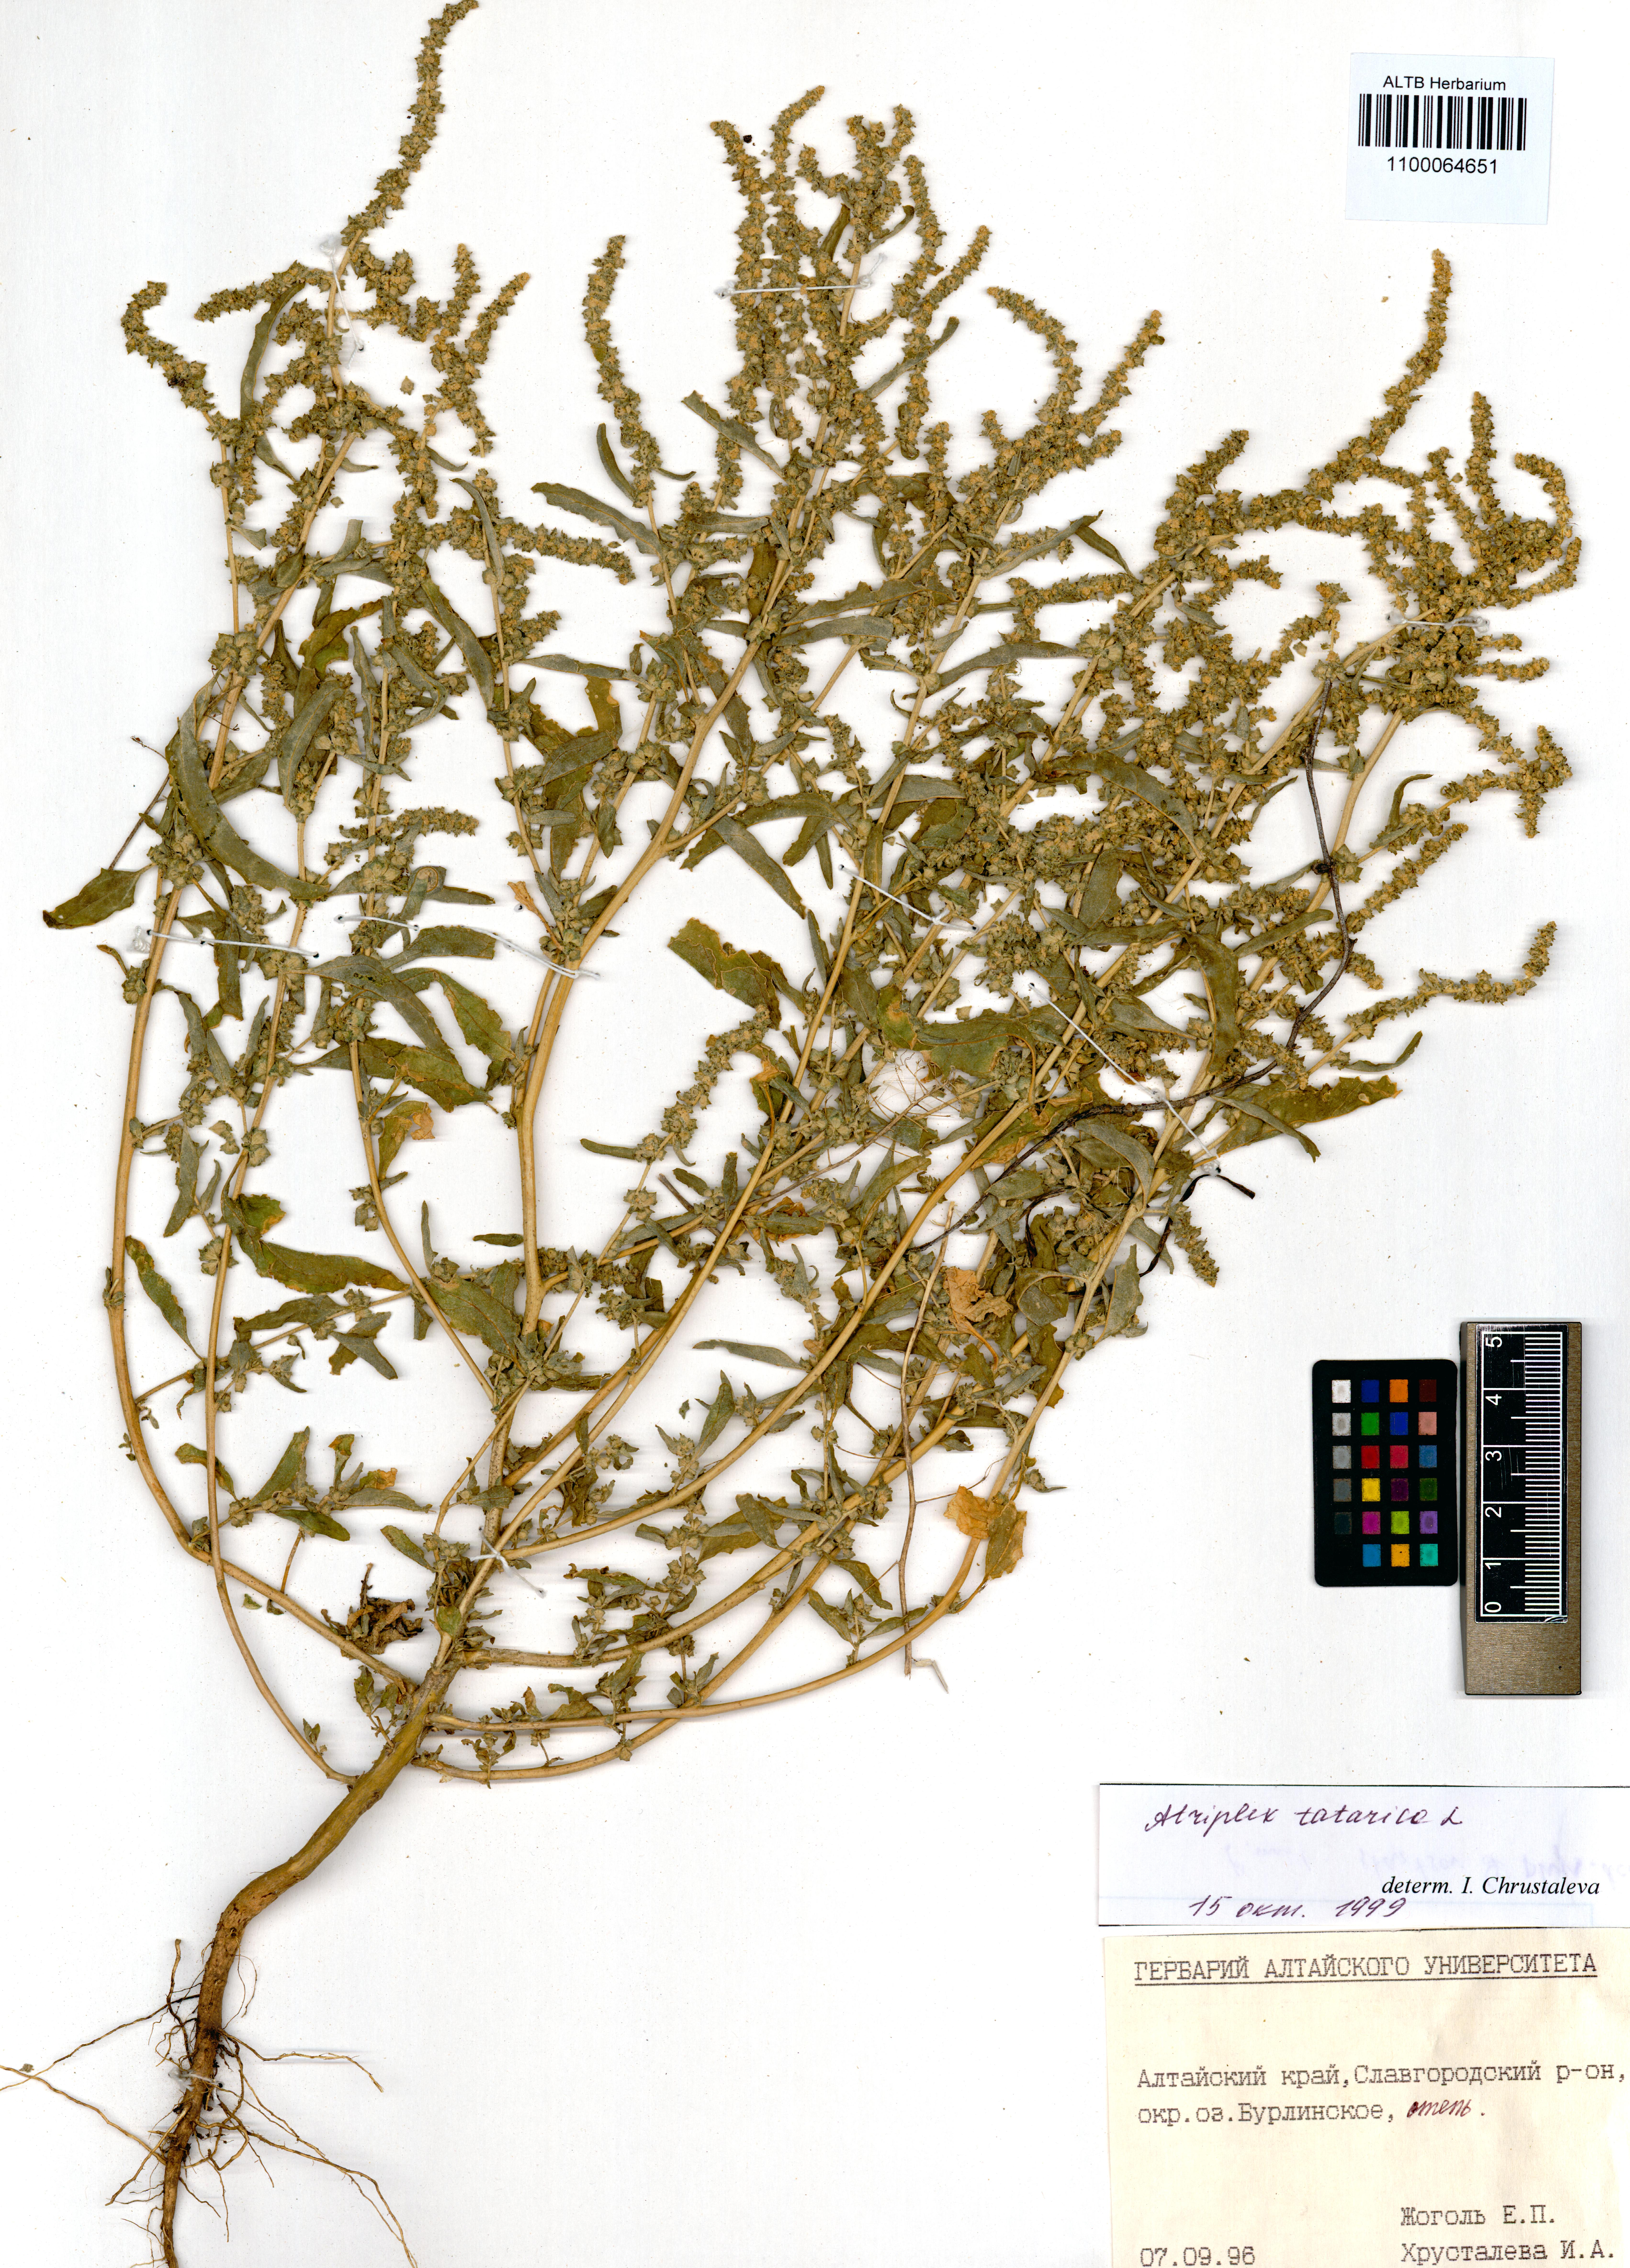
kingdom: Plantae
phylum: Tracheophyta
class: Magnoliopsida
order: Caryophyllales
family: Amaranthaceae
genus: Atriplex
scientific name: Atriplex tatarica
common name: Tatarian orache
